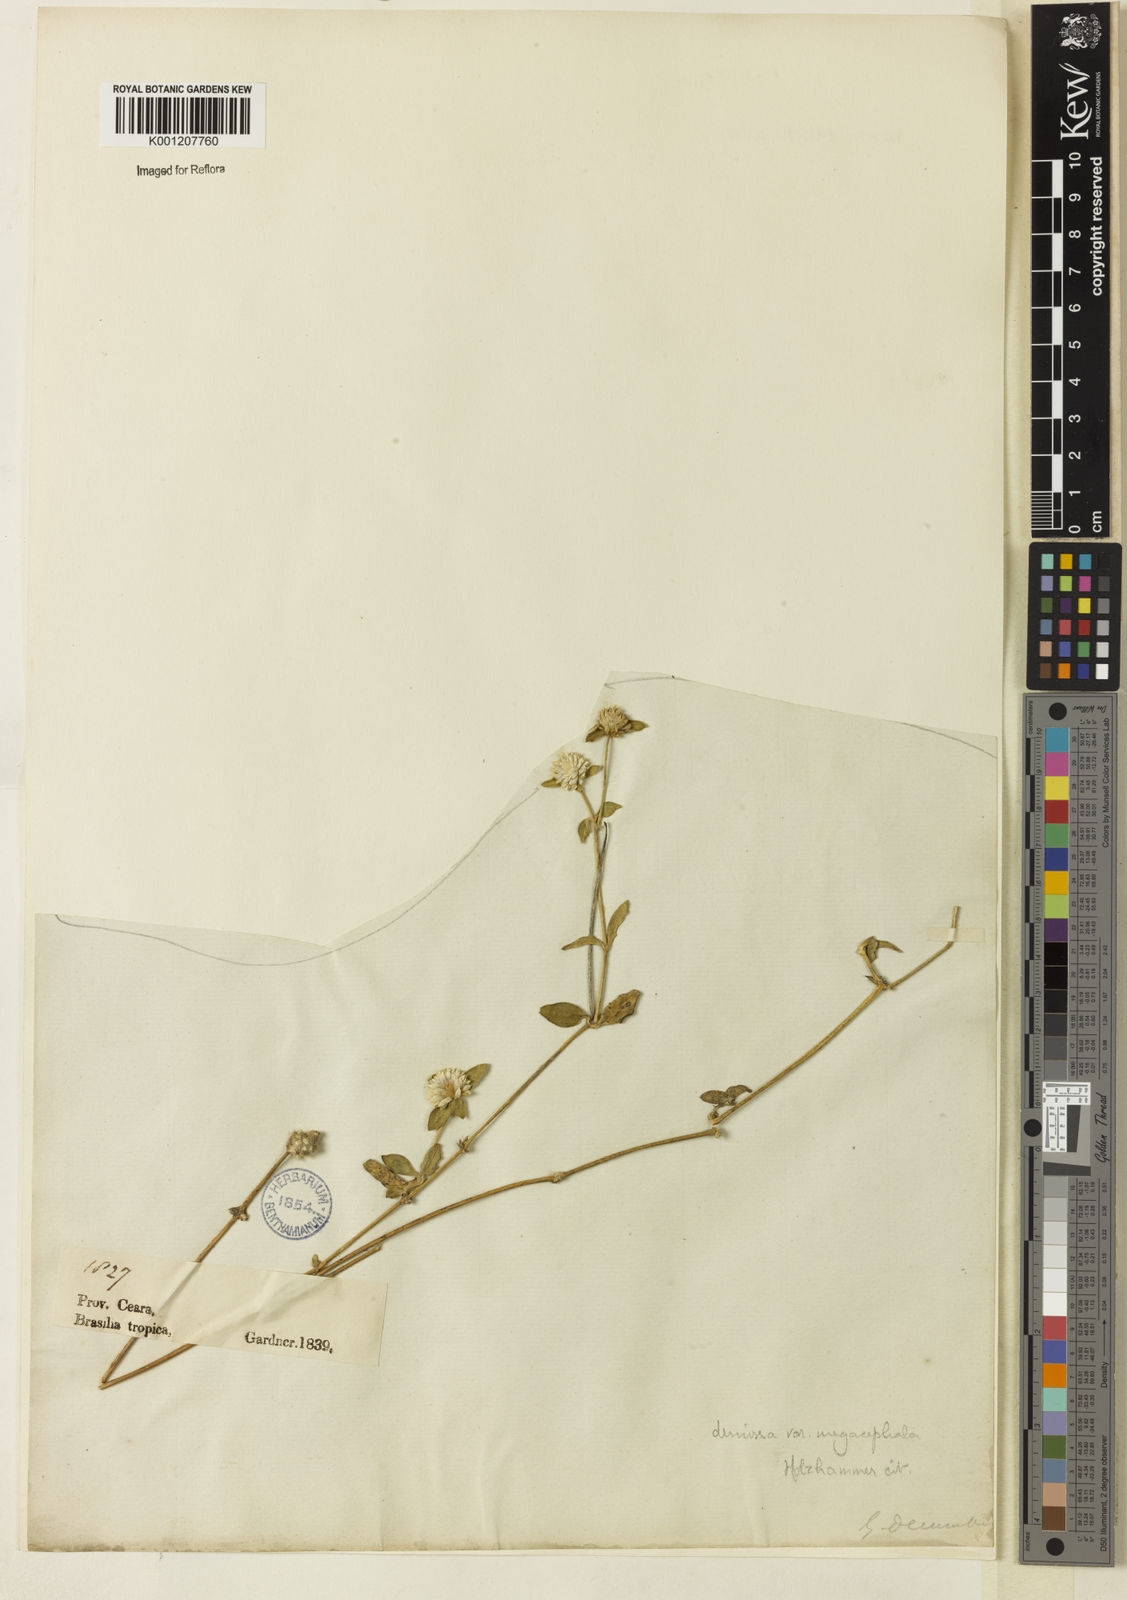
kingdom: Plantae
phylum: Tracheophyta
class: Magnoliopsida
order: Caryophyllales
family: Amaranthaceae
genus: Gomphrena
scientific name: Gomphrena demissa
